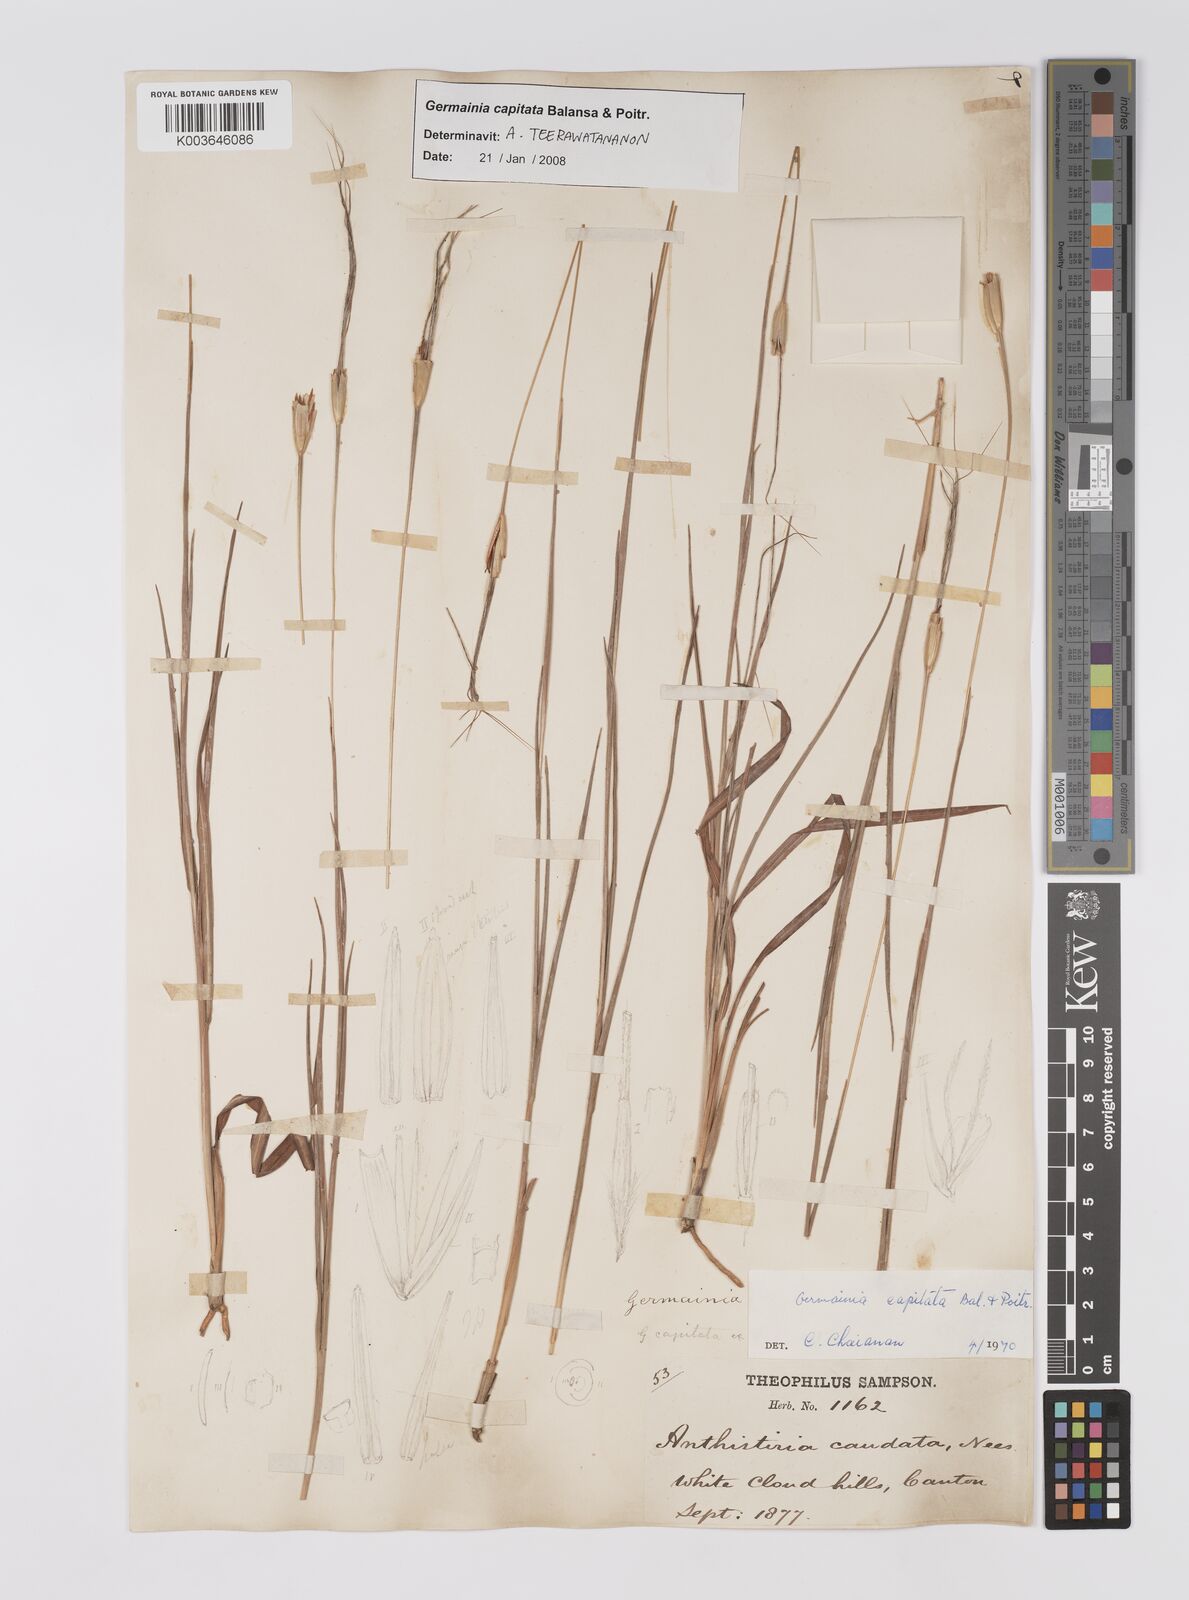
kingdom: Plantae
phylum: Tracheophyta
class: Liliopsida
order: Poales
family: Poaceae
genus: Germainia
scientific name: Germainia capitata
